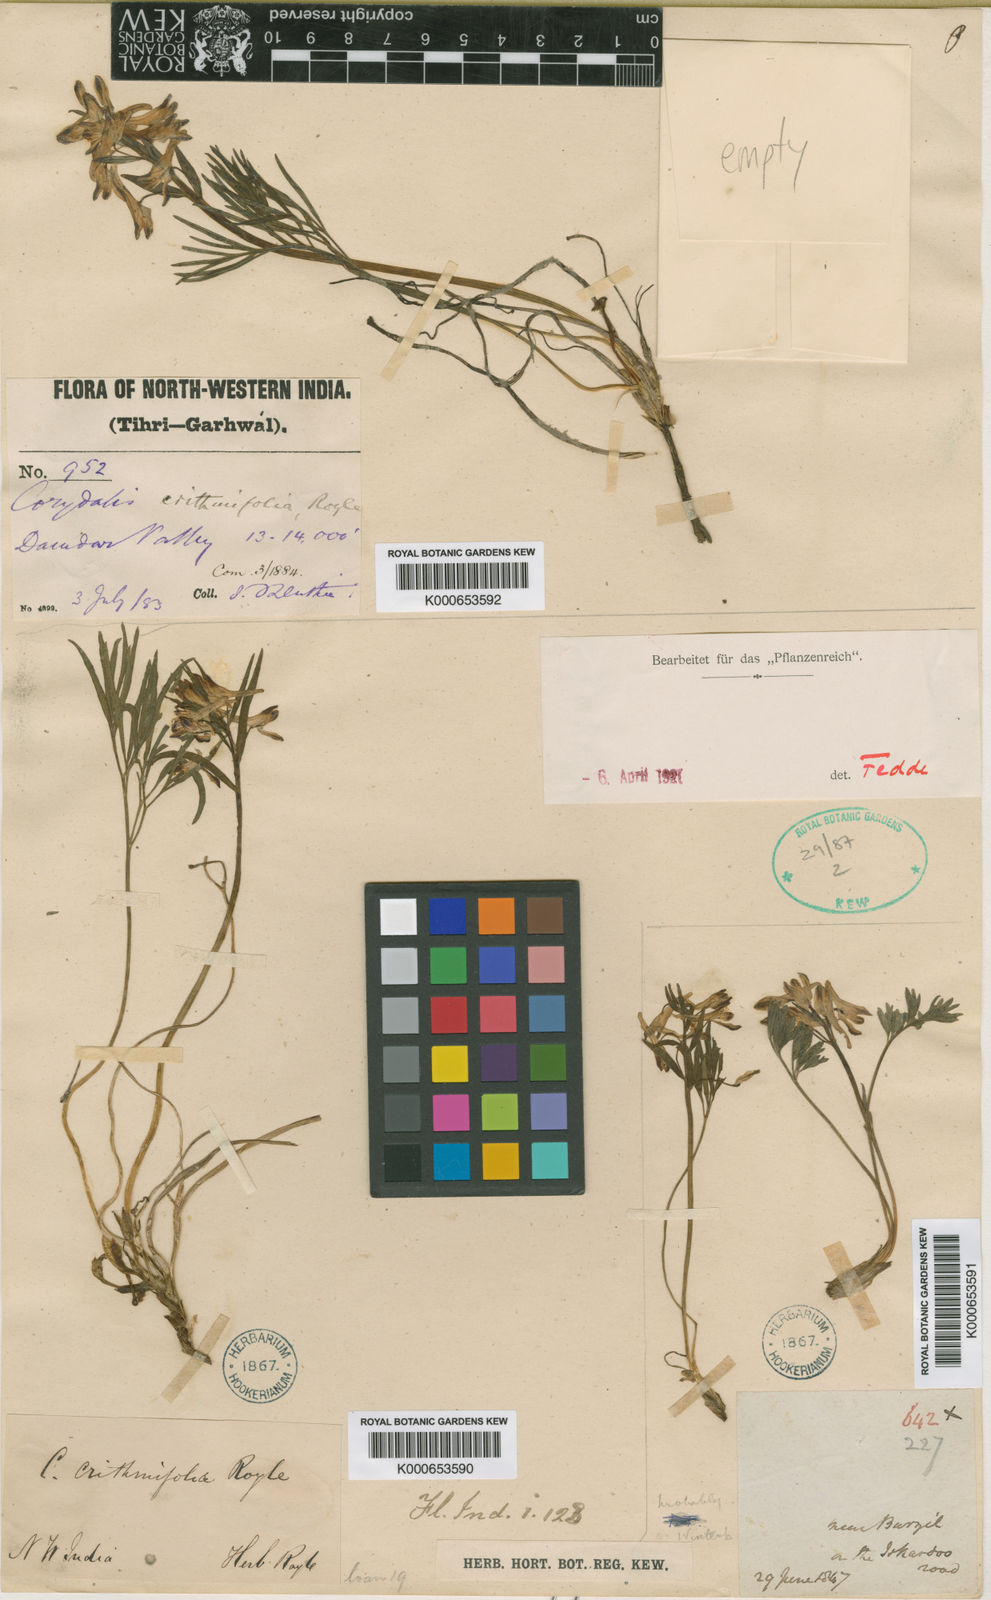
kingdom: Plantae
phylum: Tracheophyta
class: Magnoliopsida
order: Ranunculales
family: Papaveraceae
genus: Corydalis
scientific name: Corydalis crithmifolia
